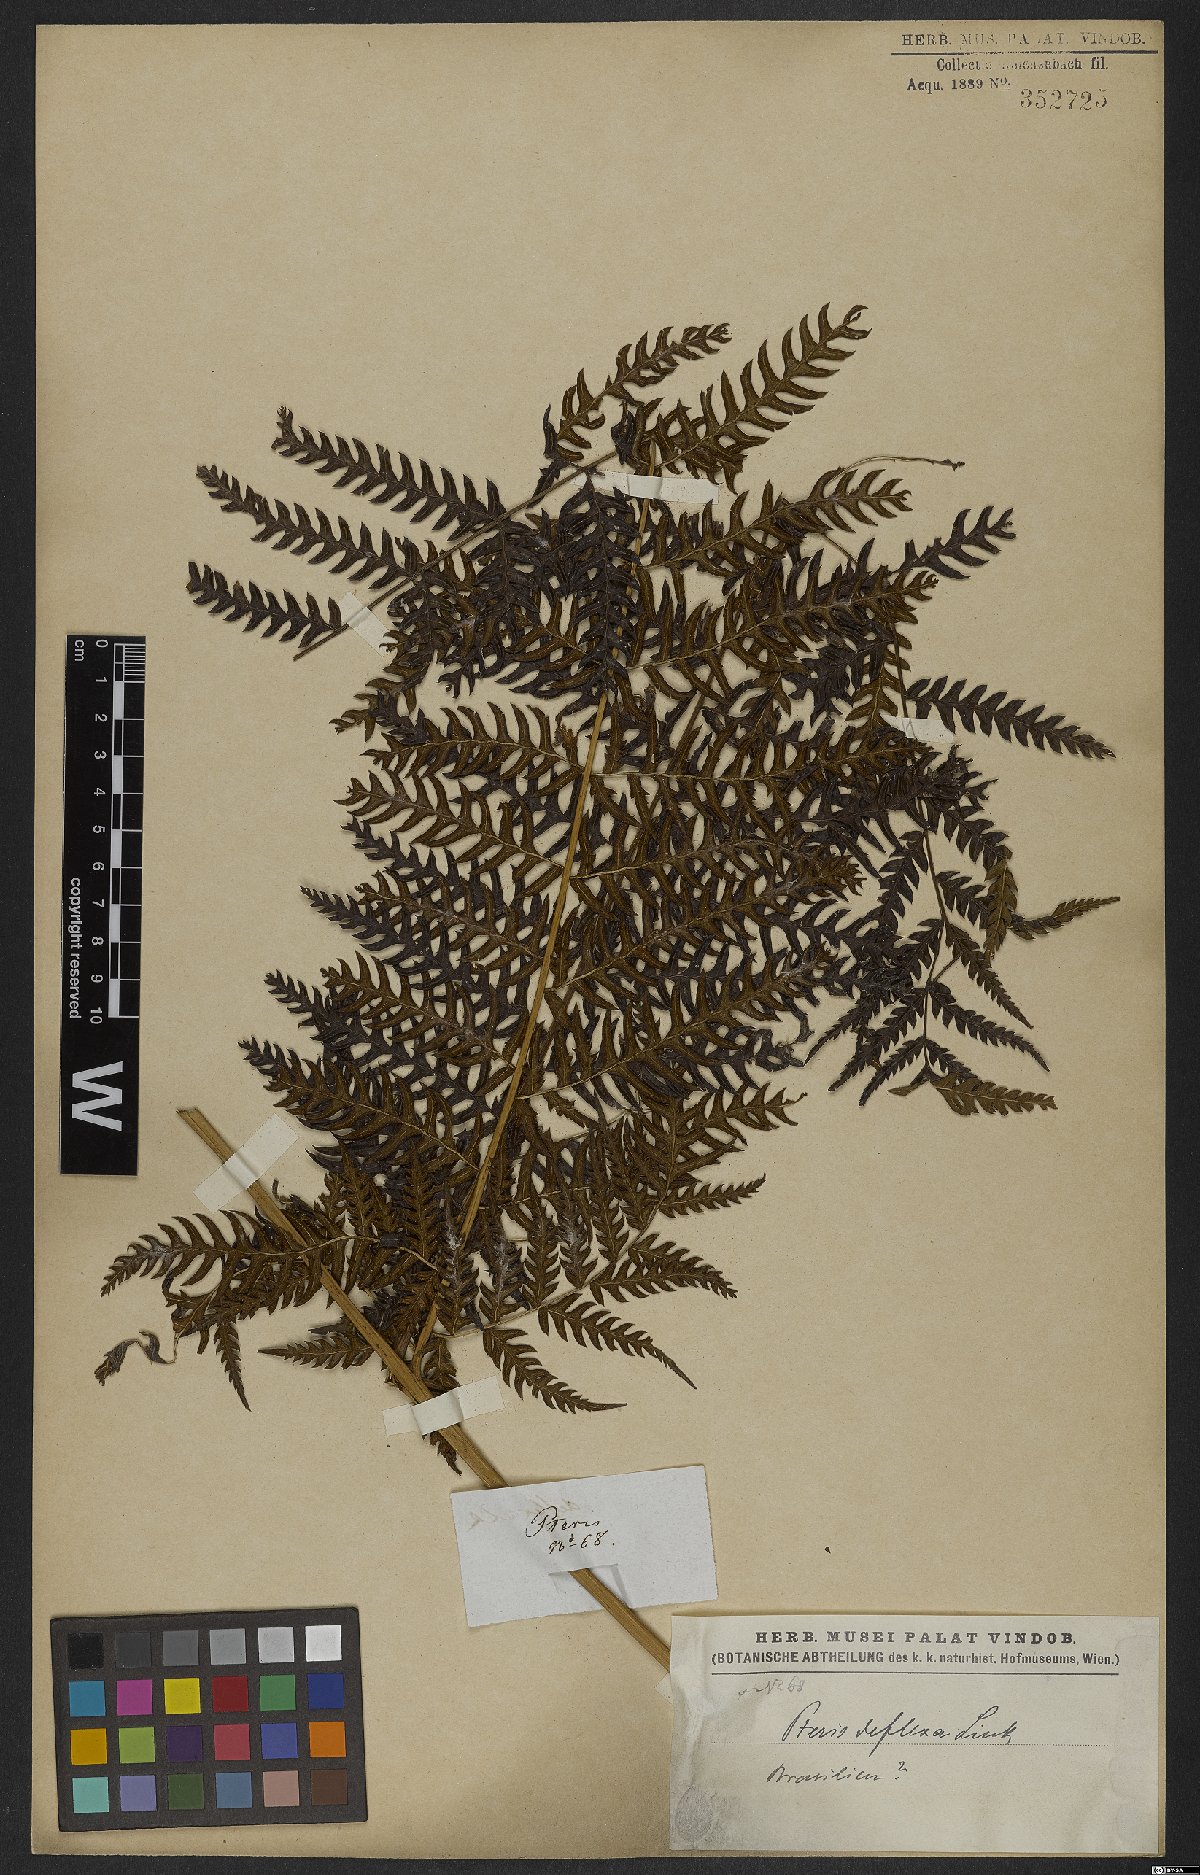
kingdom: Plantae
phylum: Tracheophyta
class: Polypodiopsida
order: Polypodiales
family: Pteridaceae
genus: Pteris
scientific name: Pteris deflexa
